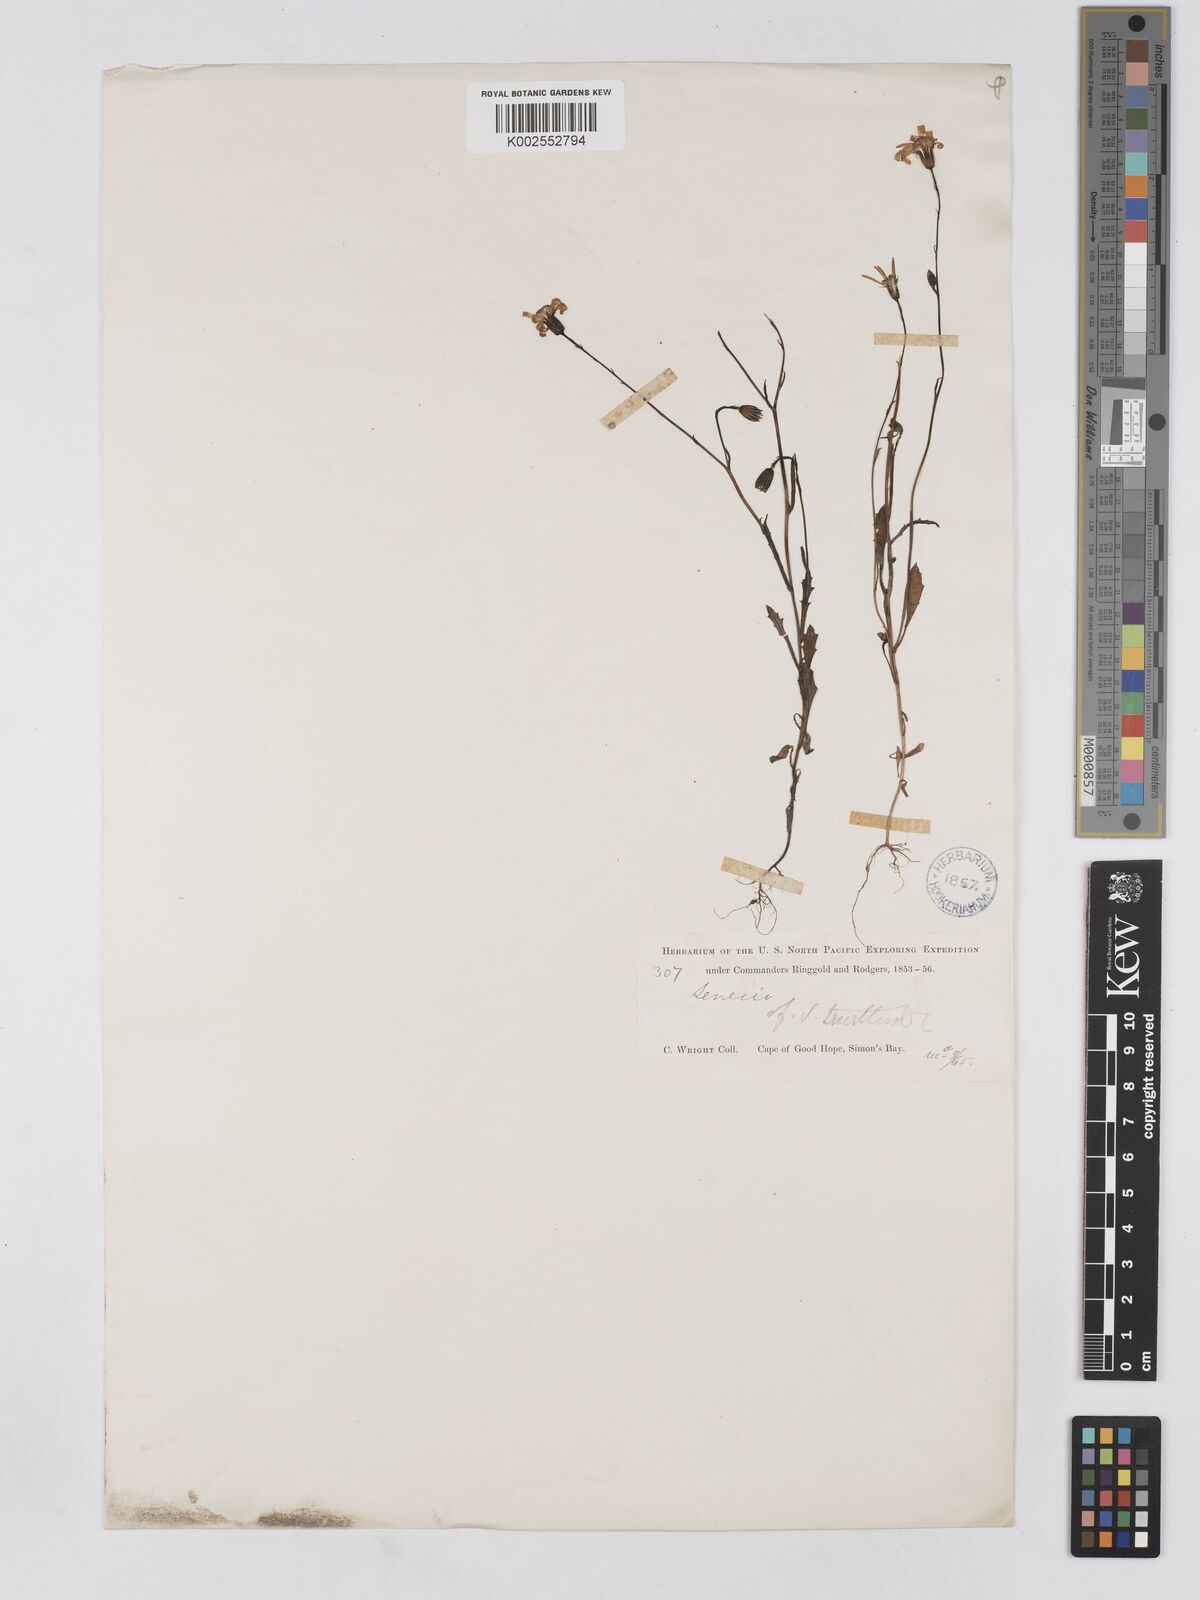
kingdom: Plantae
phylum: Tracheophyta
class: Magnoliopsida
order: Asterales
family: Asteraceae
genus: Senecio
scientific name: Senecio abruptus
